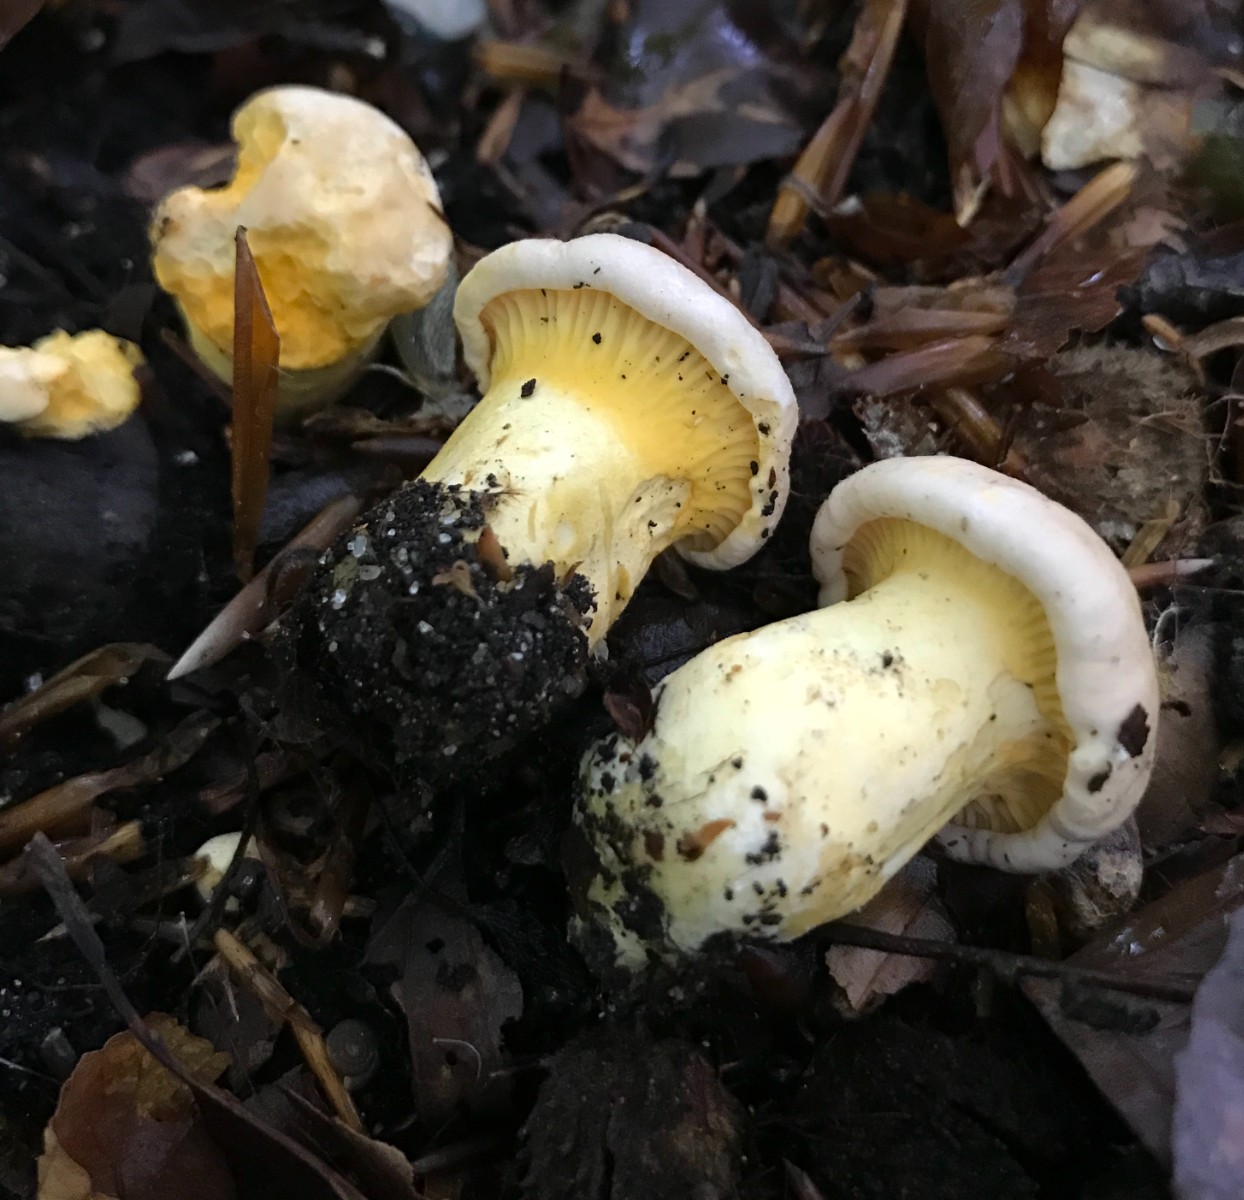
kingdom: Fungi
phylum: Basidiomycota
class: Agaricomycetes
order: Cantharellales
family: Hydnaceae
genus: Cantharellus
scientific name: Cantharellus pallens
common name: bleg kantarel
